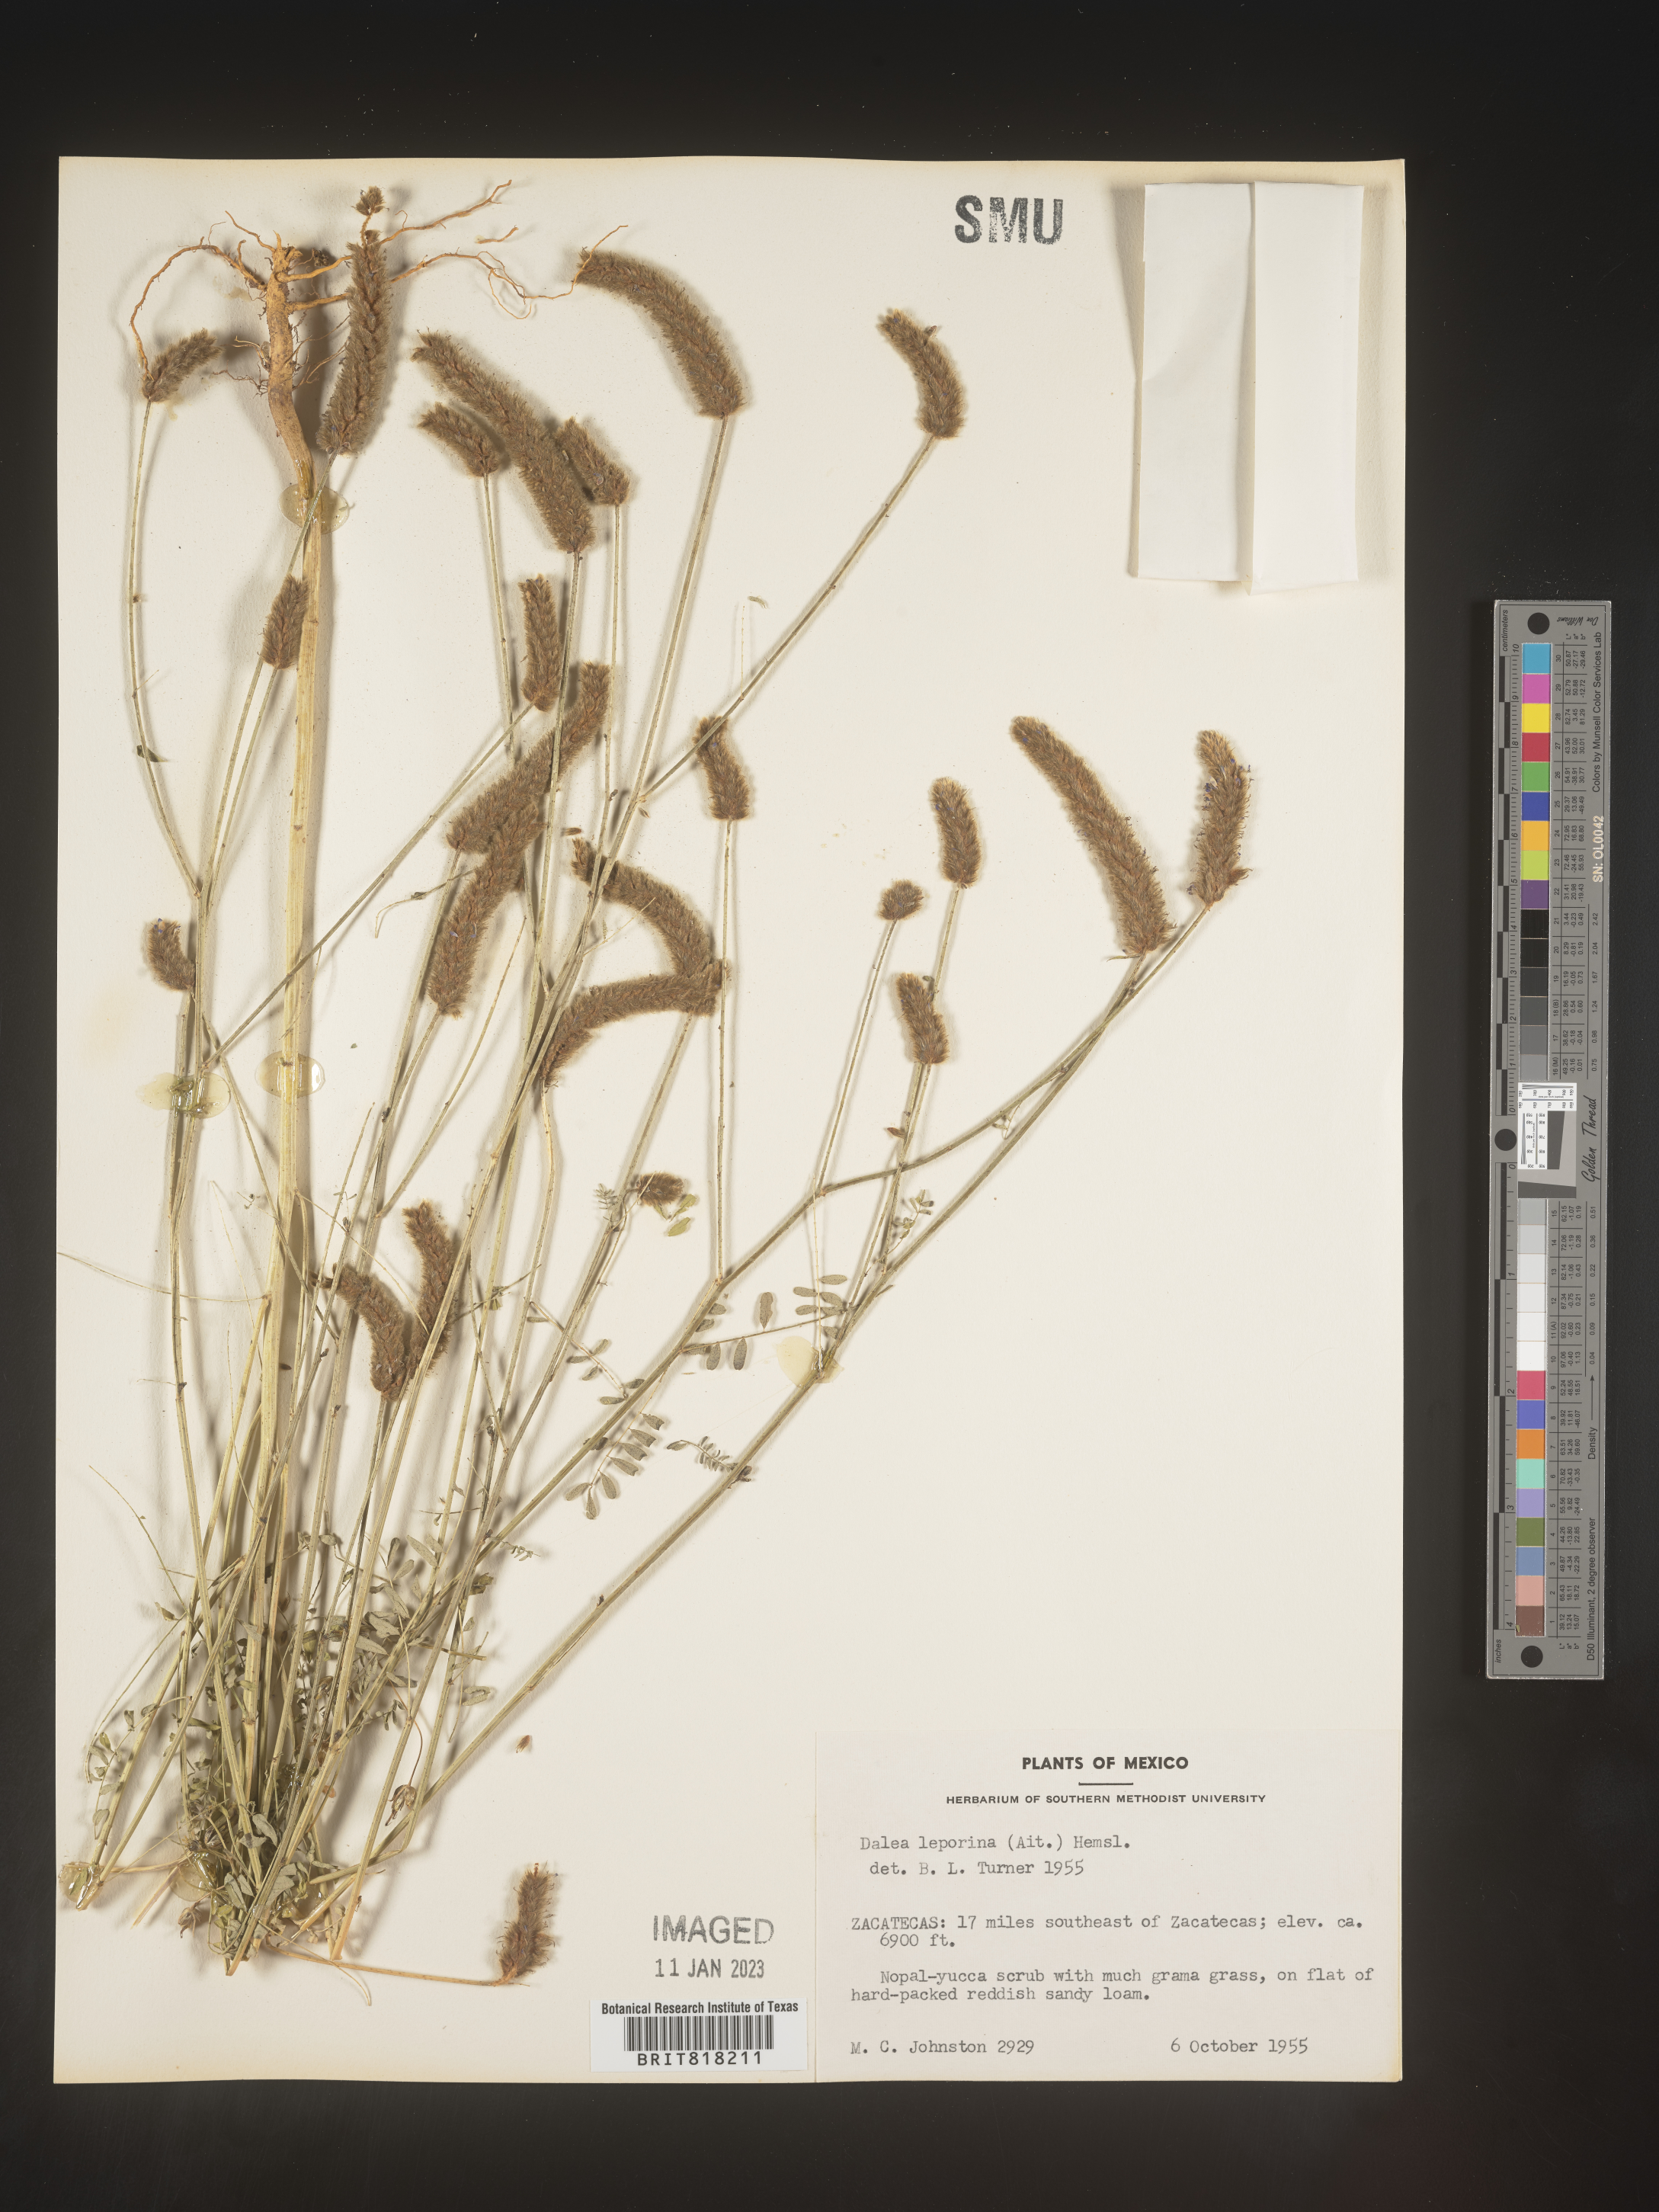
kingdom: Plantae
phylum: Tracheophyta
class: Magnoliopsida
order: Fabales
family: Fabaceae
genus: Dalea
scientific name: Dalea
